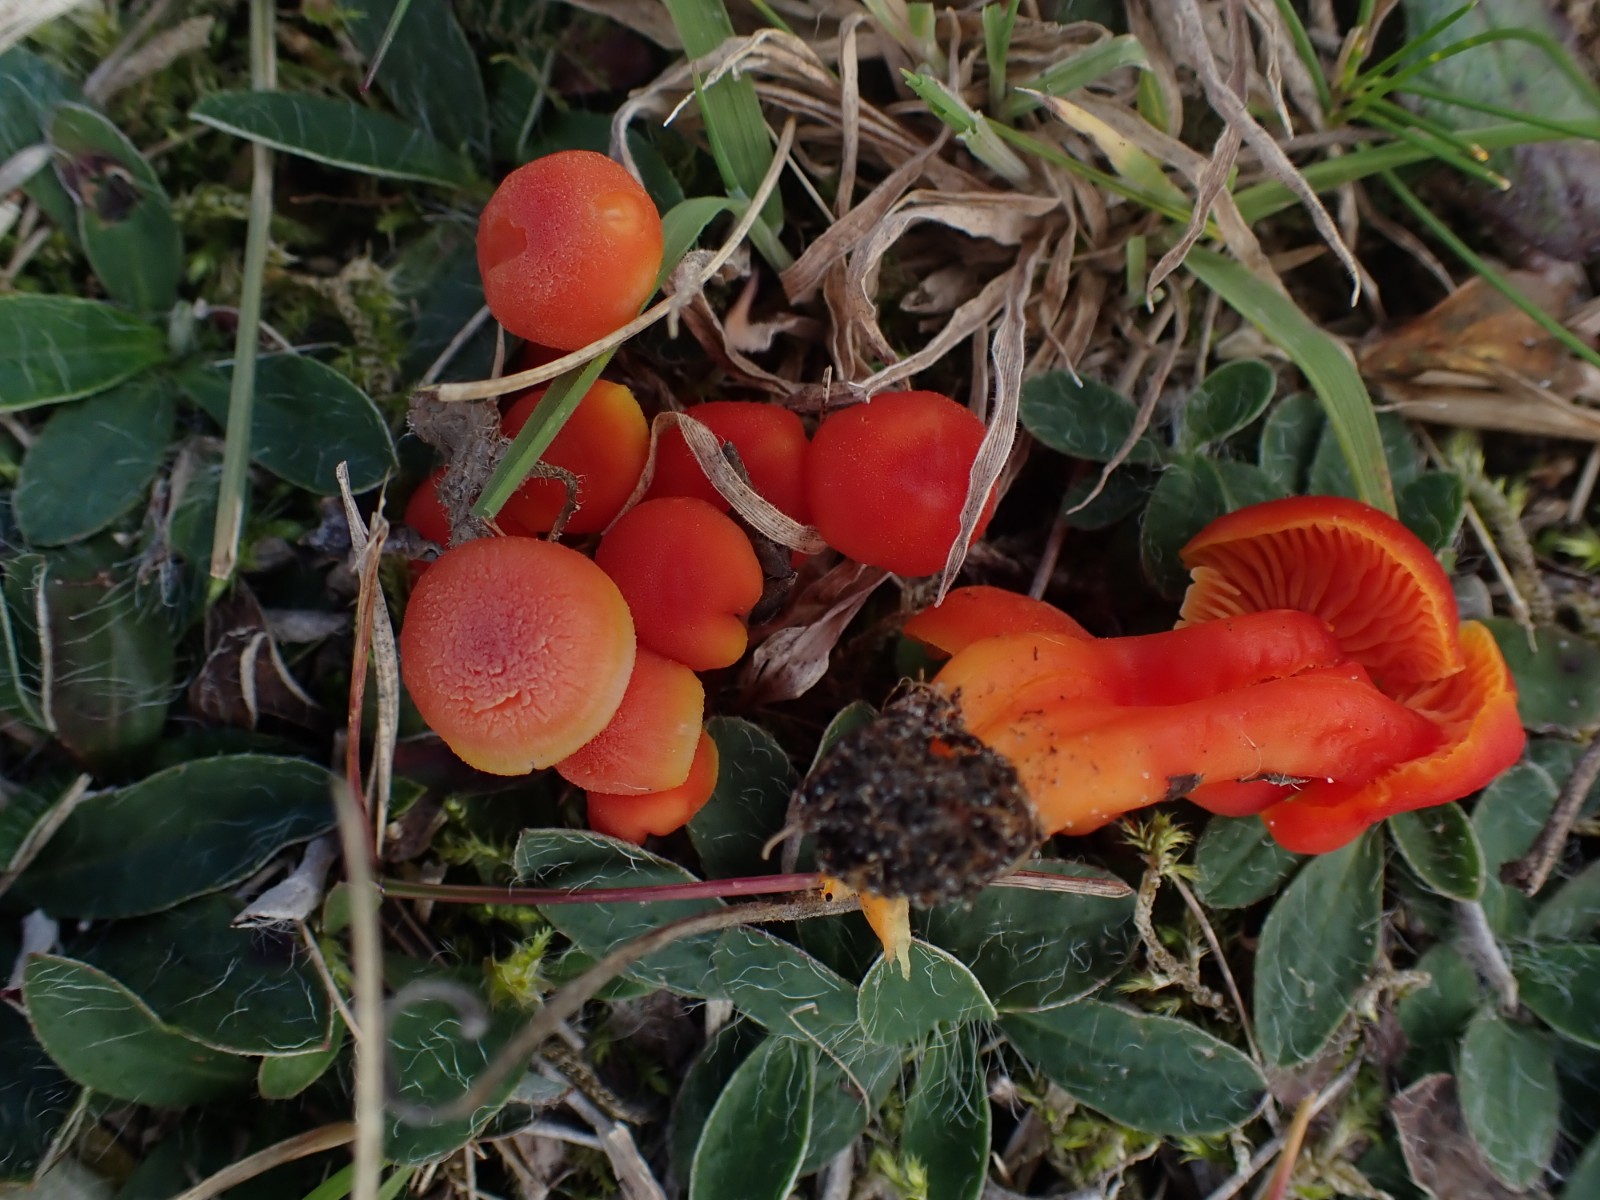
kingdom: Fungi
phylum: Basidiomycota
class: Agaricomycetes
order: Agaricales
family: Hygrophoraceae
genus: Hygrocybe
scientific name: Hygrocybe miniata
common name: mønje-vokshat
